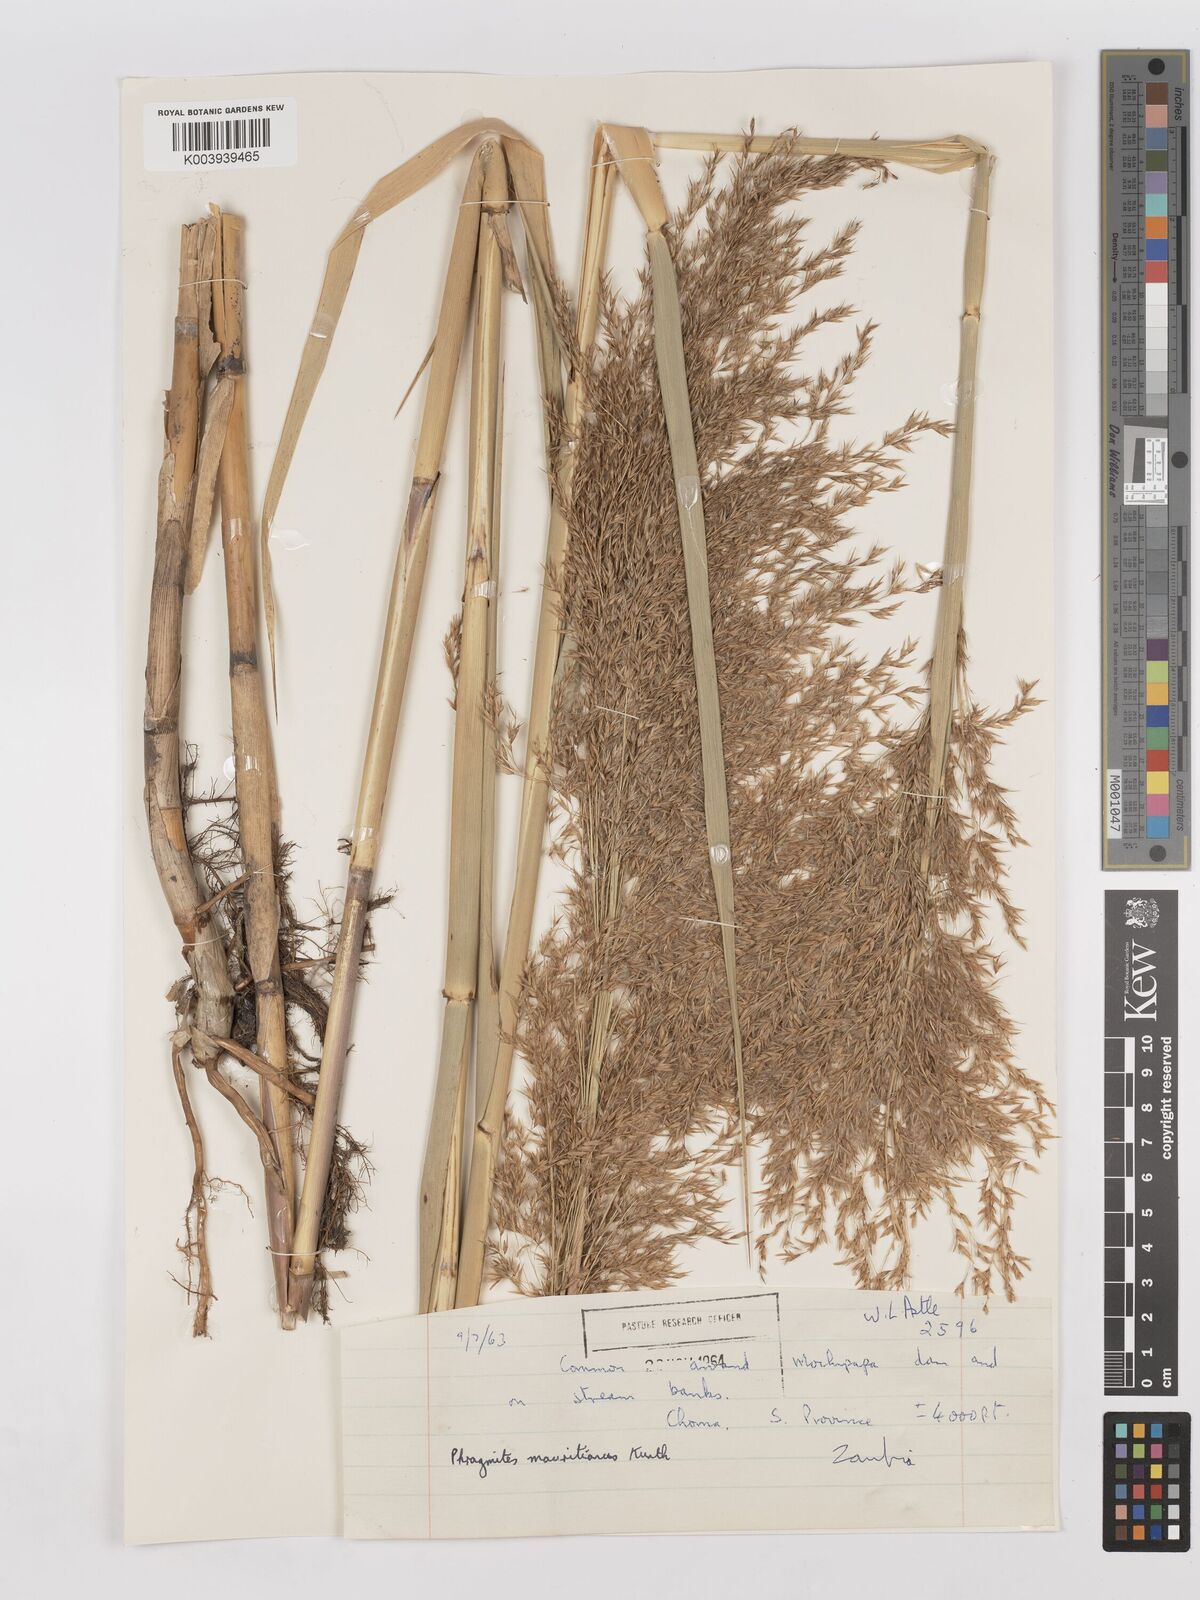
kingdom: Plantae
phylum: Tracheophyta
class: Liliopsida
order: Poales
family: Poaceae
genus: Phragmites
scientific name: Phragmites mauritianus
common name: Reed grass
